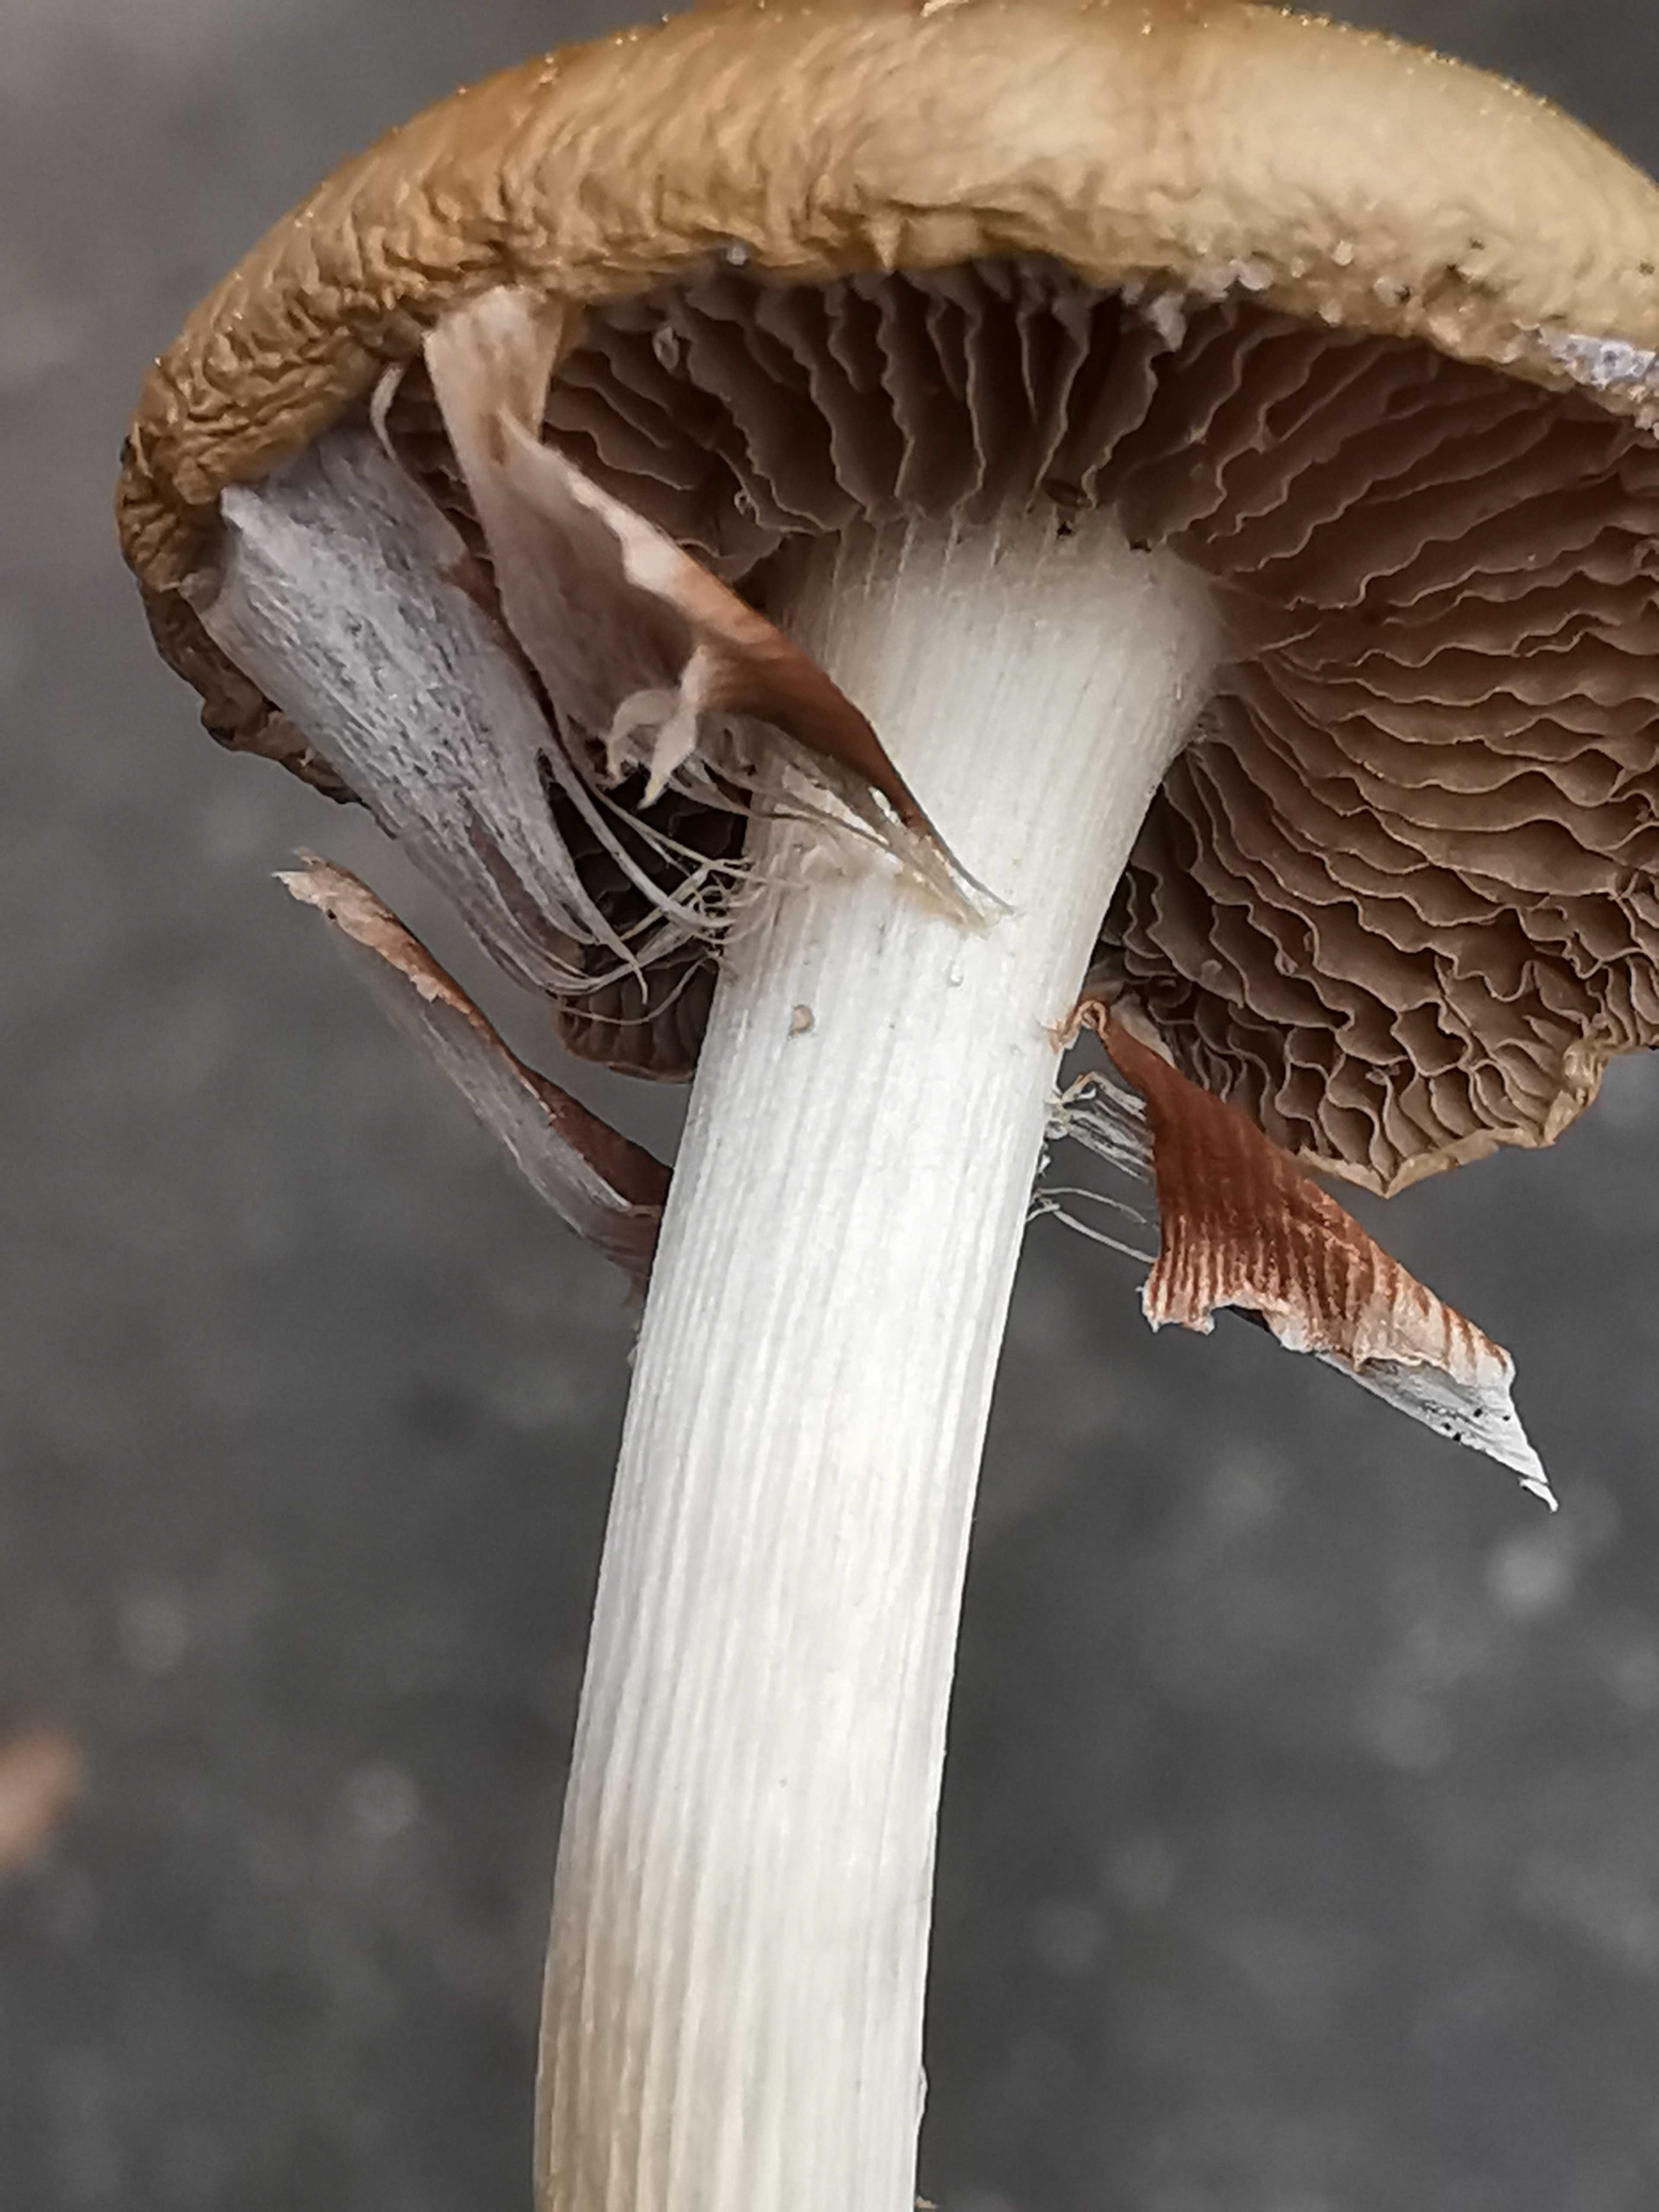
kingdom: Fungi
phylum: Basidiomycota
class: Agaricomycetes
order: Agaricales
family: Strophariaceae
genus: Agrocybe
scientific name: Agrocybe praecox
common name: tidlig agerhat
